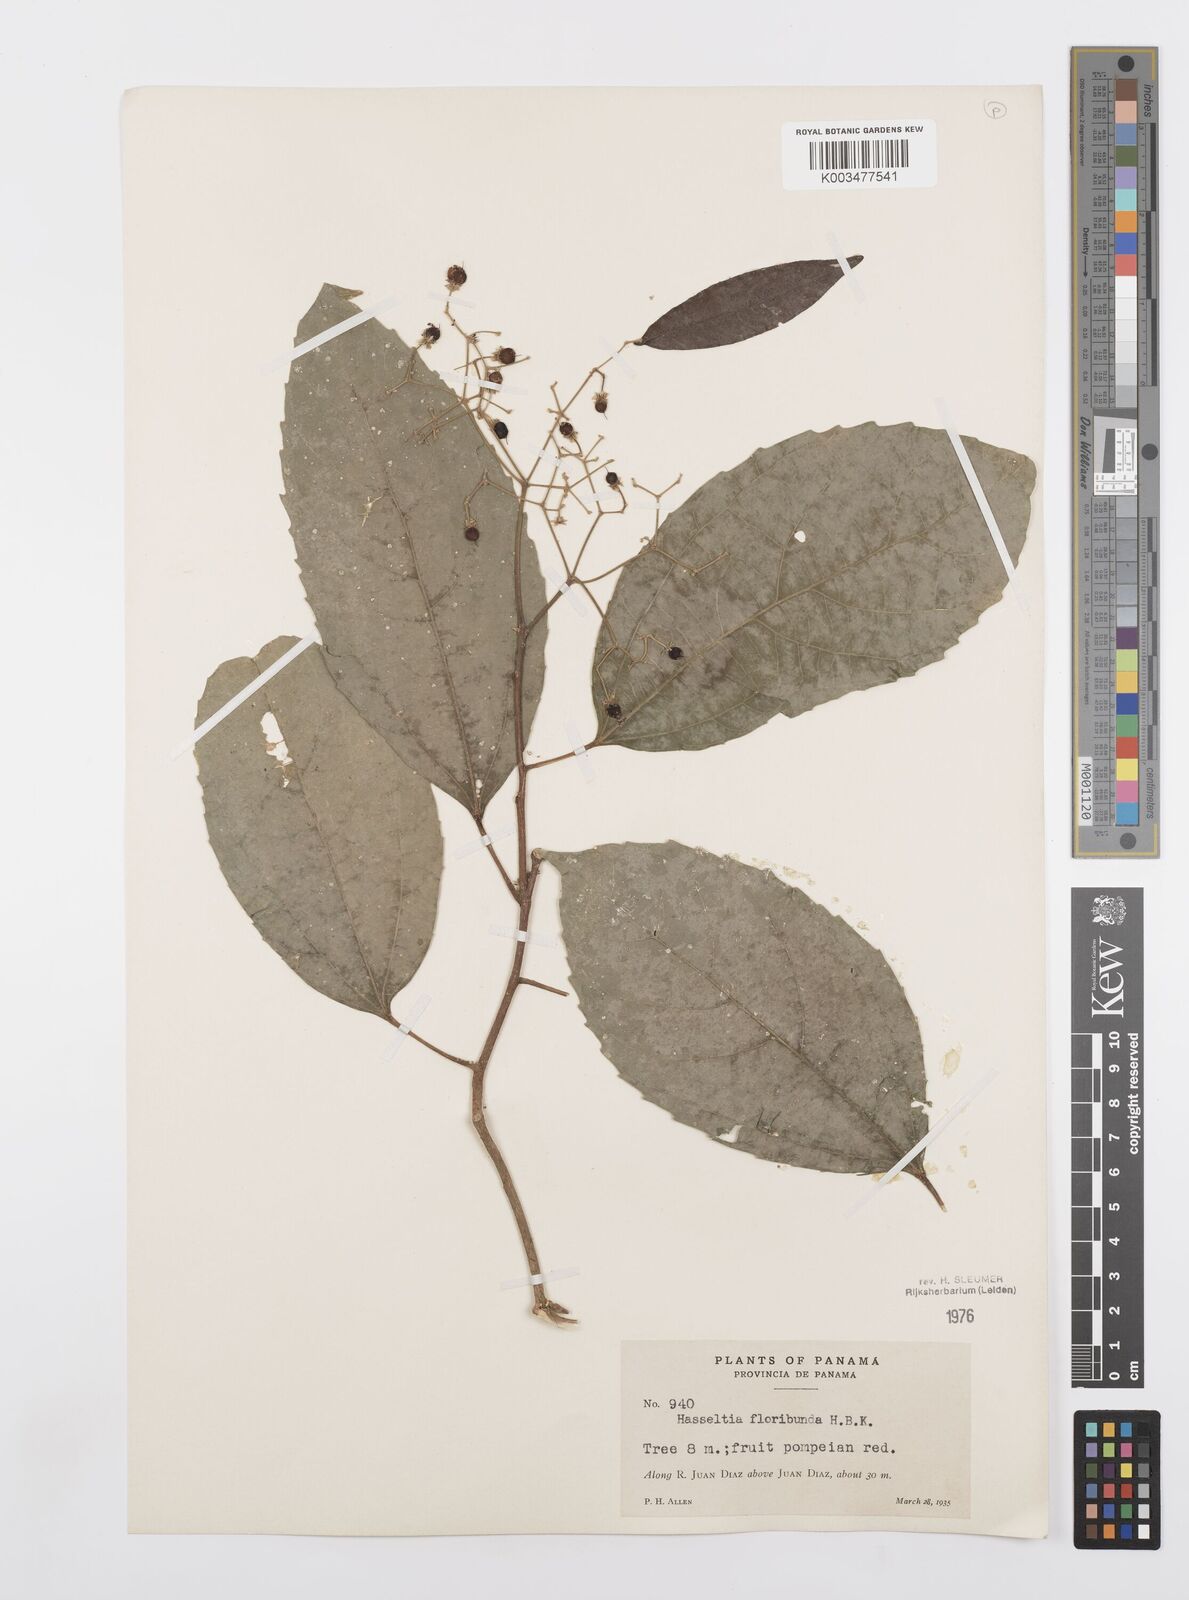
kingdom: Plantae
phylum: Tracheophyta
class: Magnoliopsida
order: Malpighiales
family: Salicaceae
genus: Hasseltia
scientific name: Hasseltia floribunda
